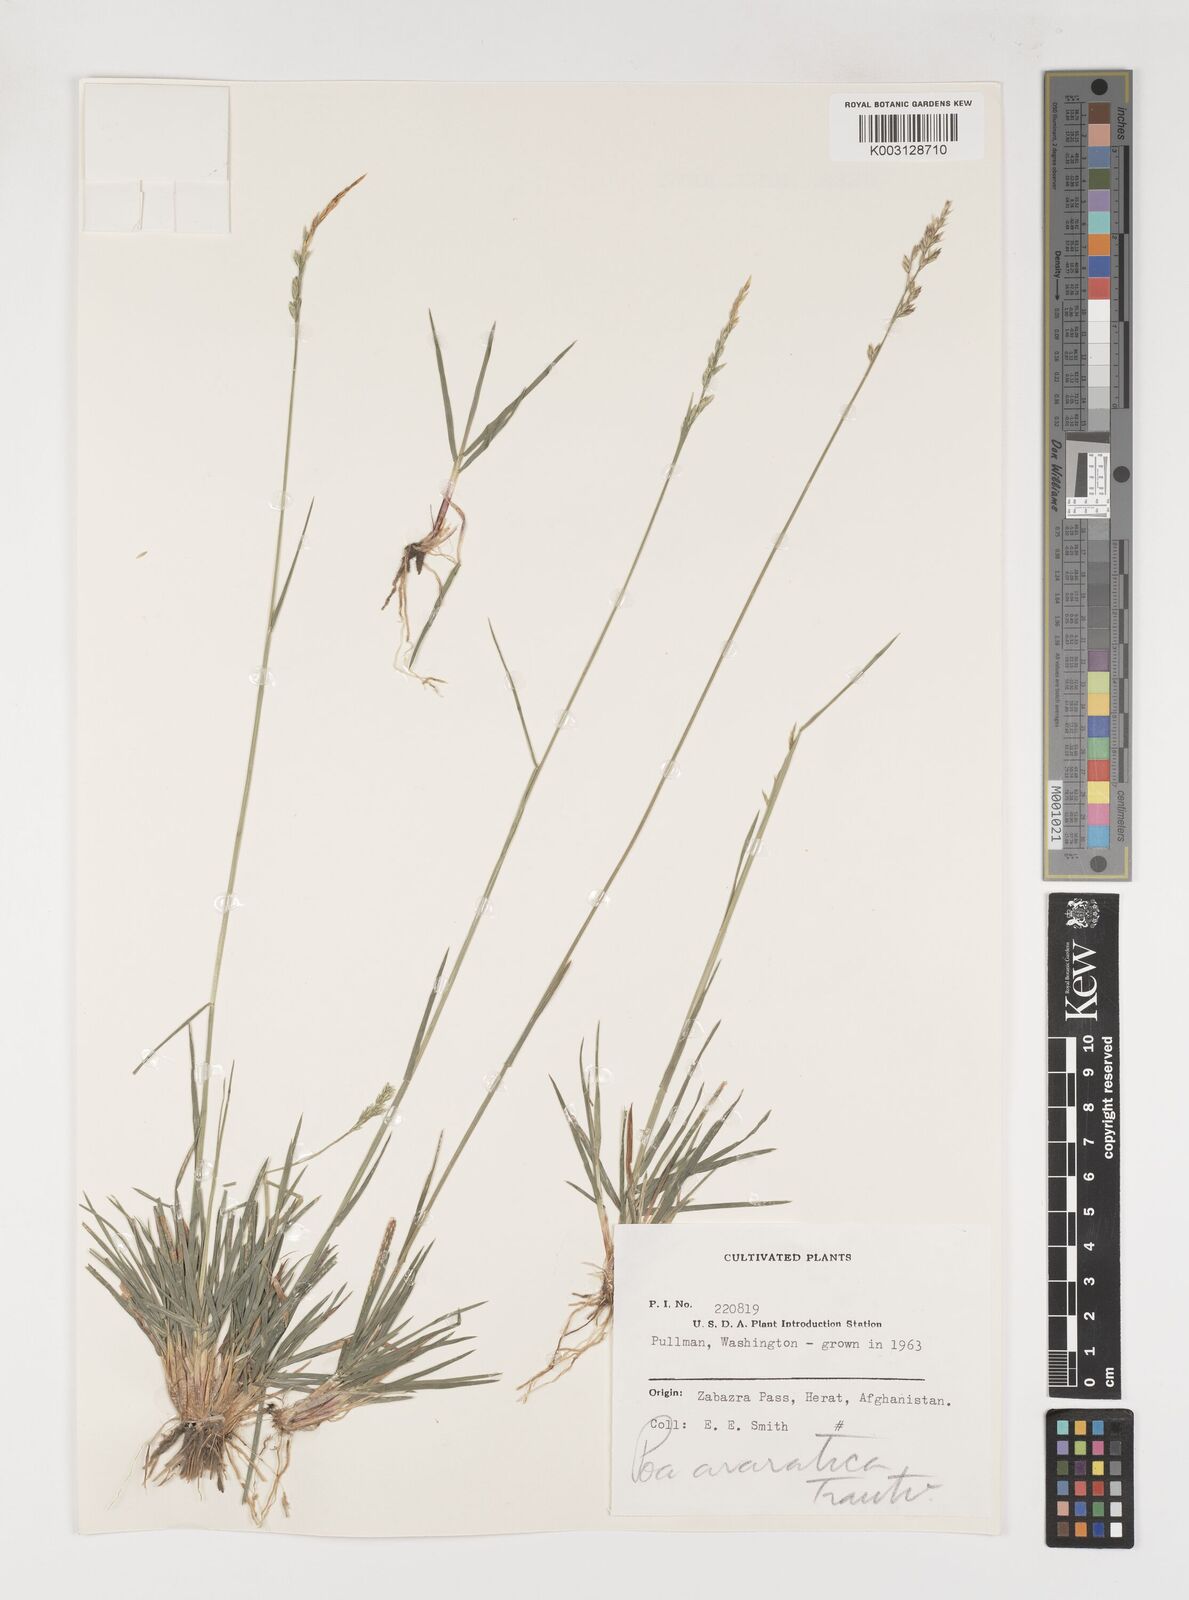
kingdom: Plantae
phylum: Tracheophyta
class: Liliopsida
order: Poales
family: Poaceae
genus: Poa
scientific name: Poa araratica
